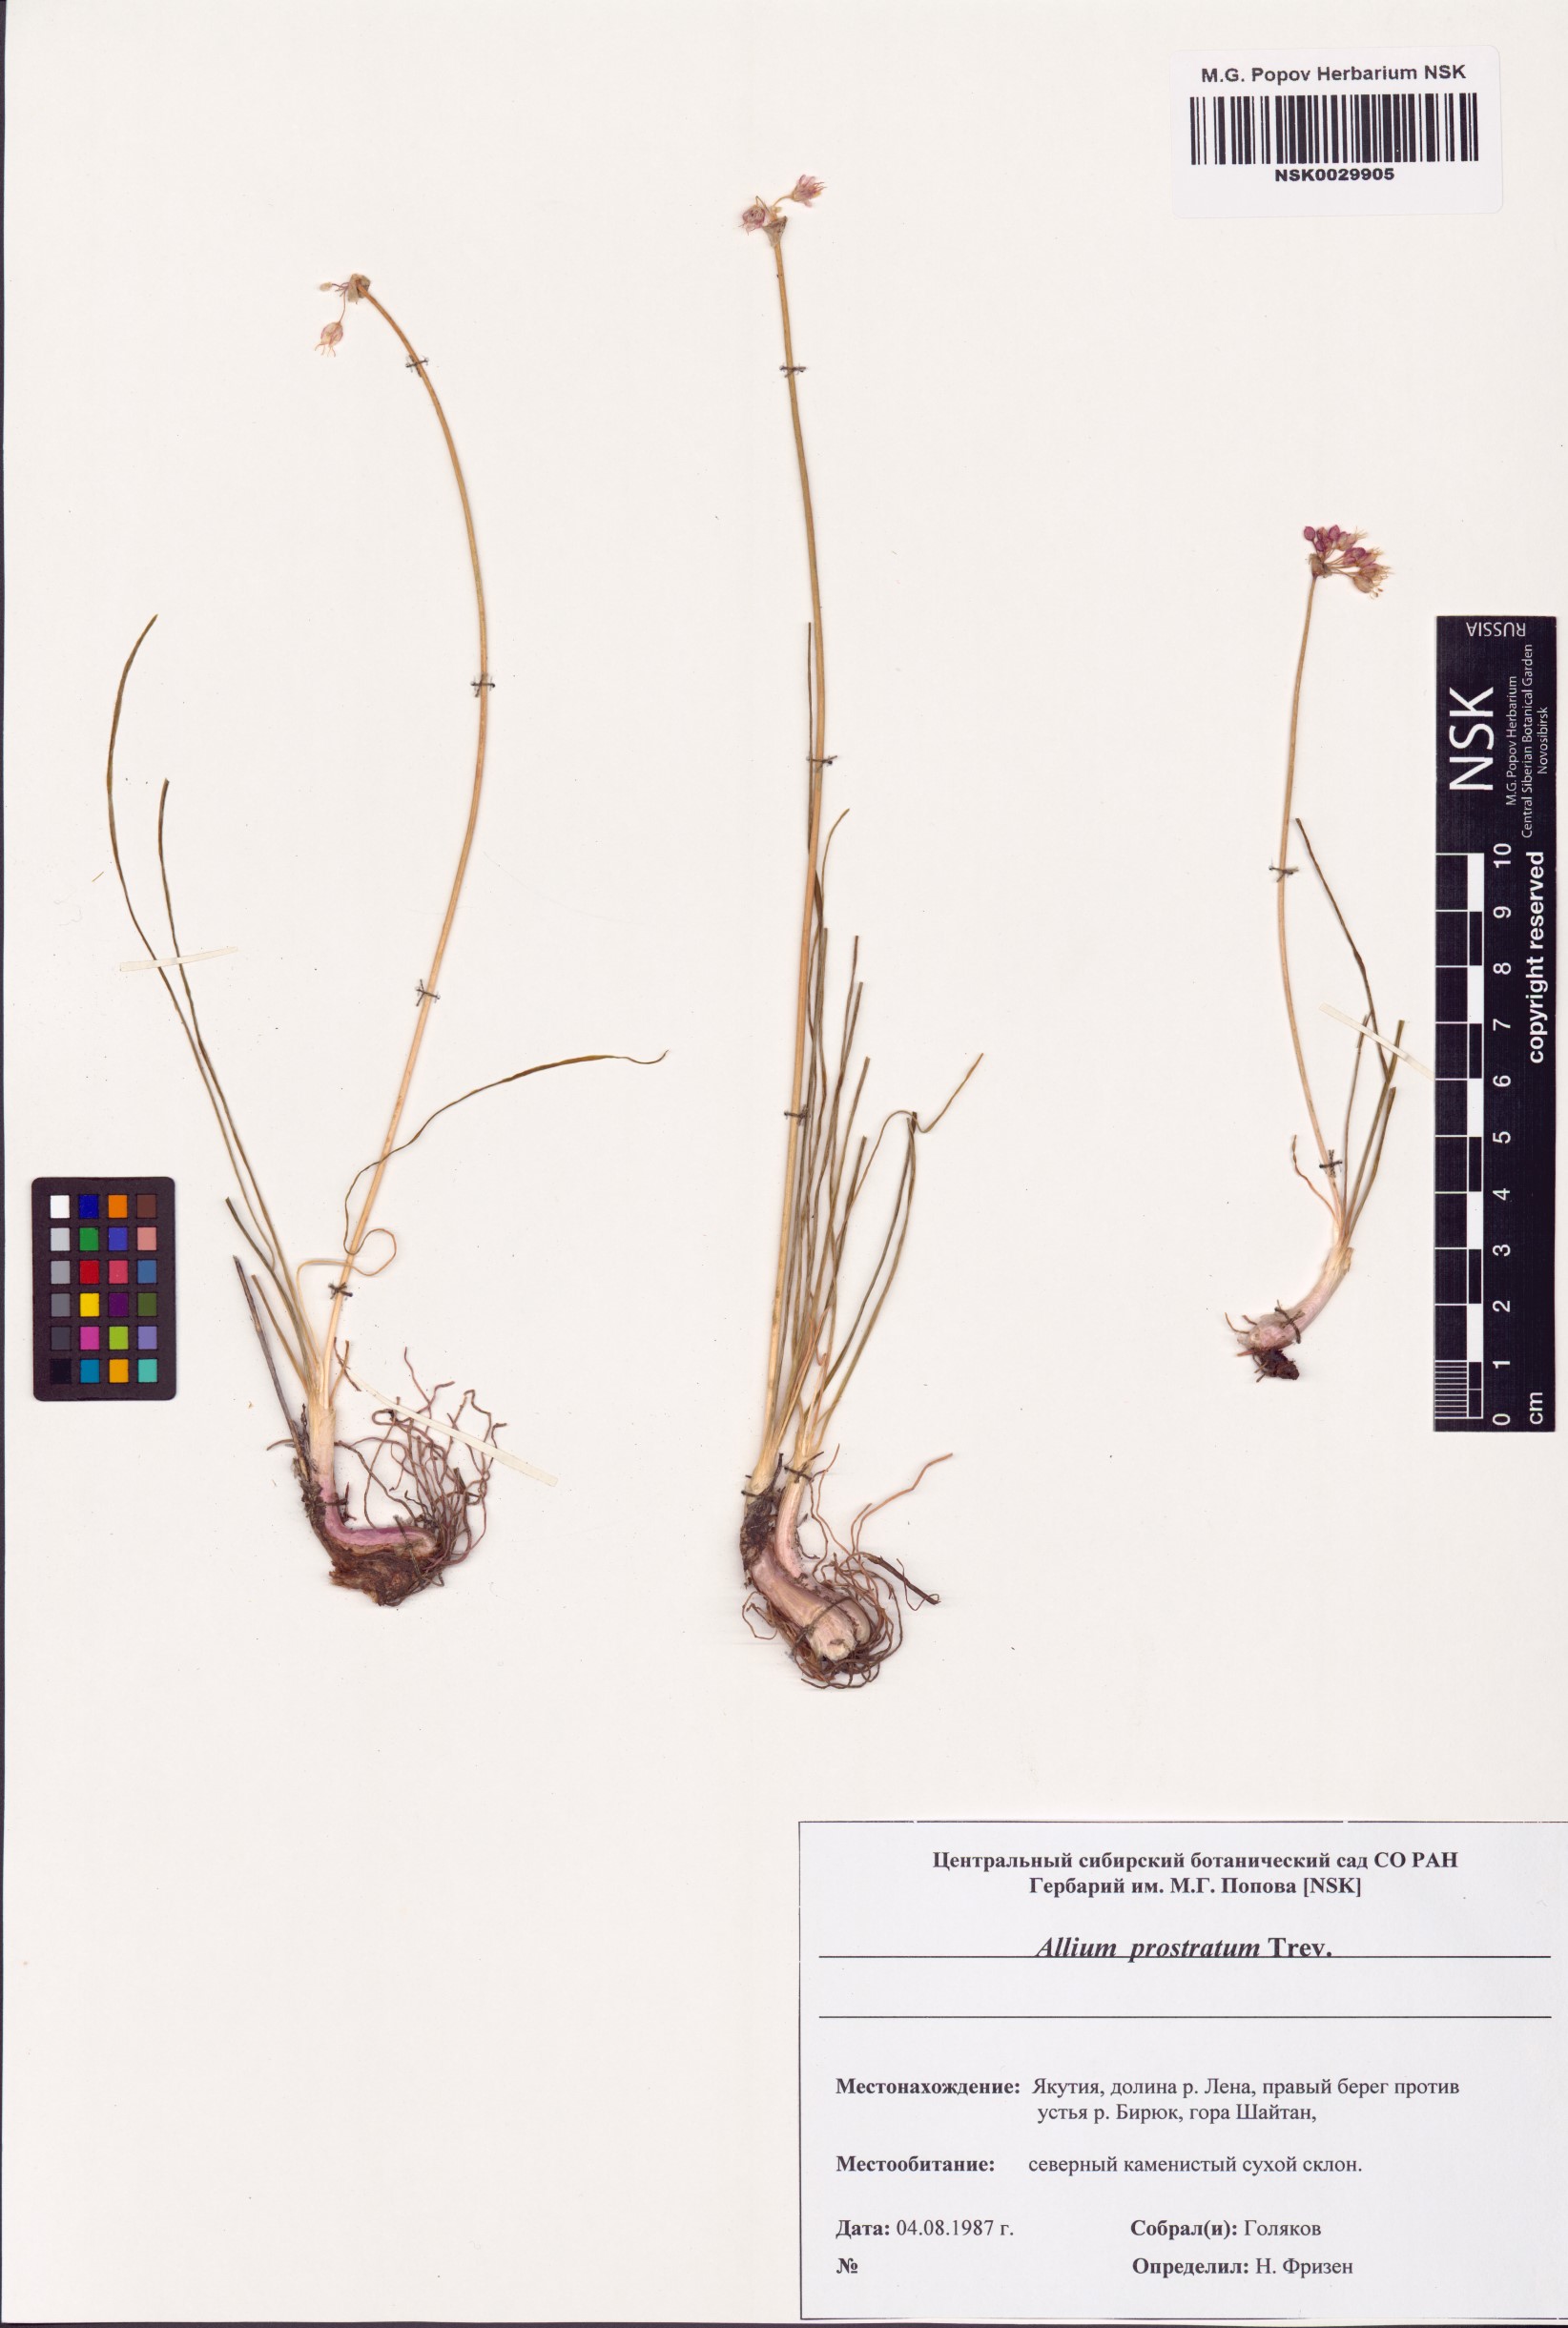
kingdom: Plantae
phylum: Tracheophyta
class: Liliopsida
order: Asparagales
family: Amaryllidaceae
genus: Allium
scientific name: Allium prostratum
